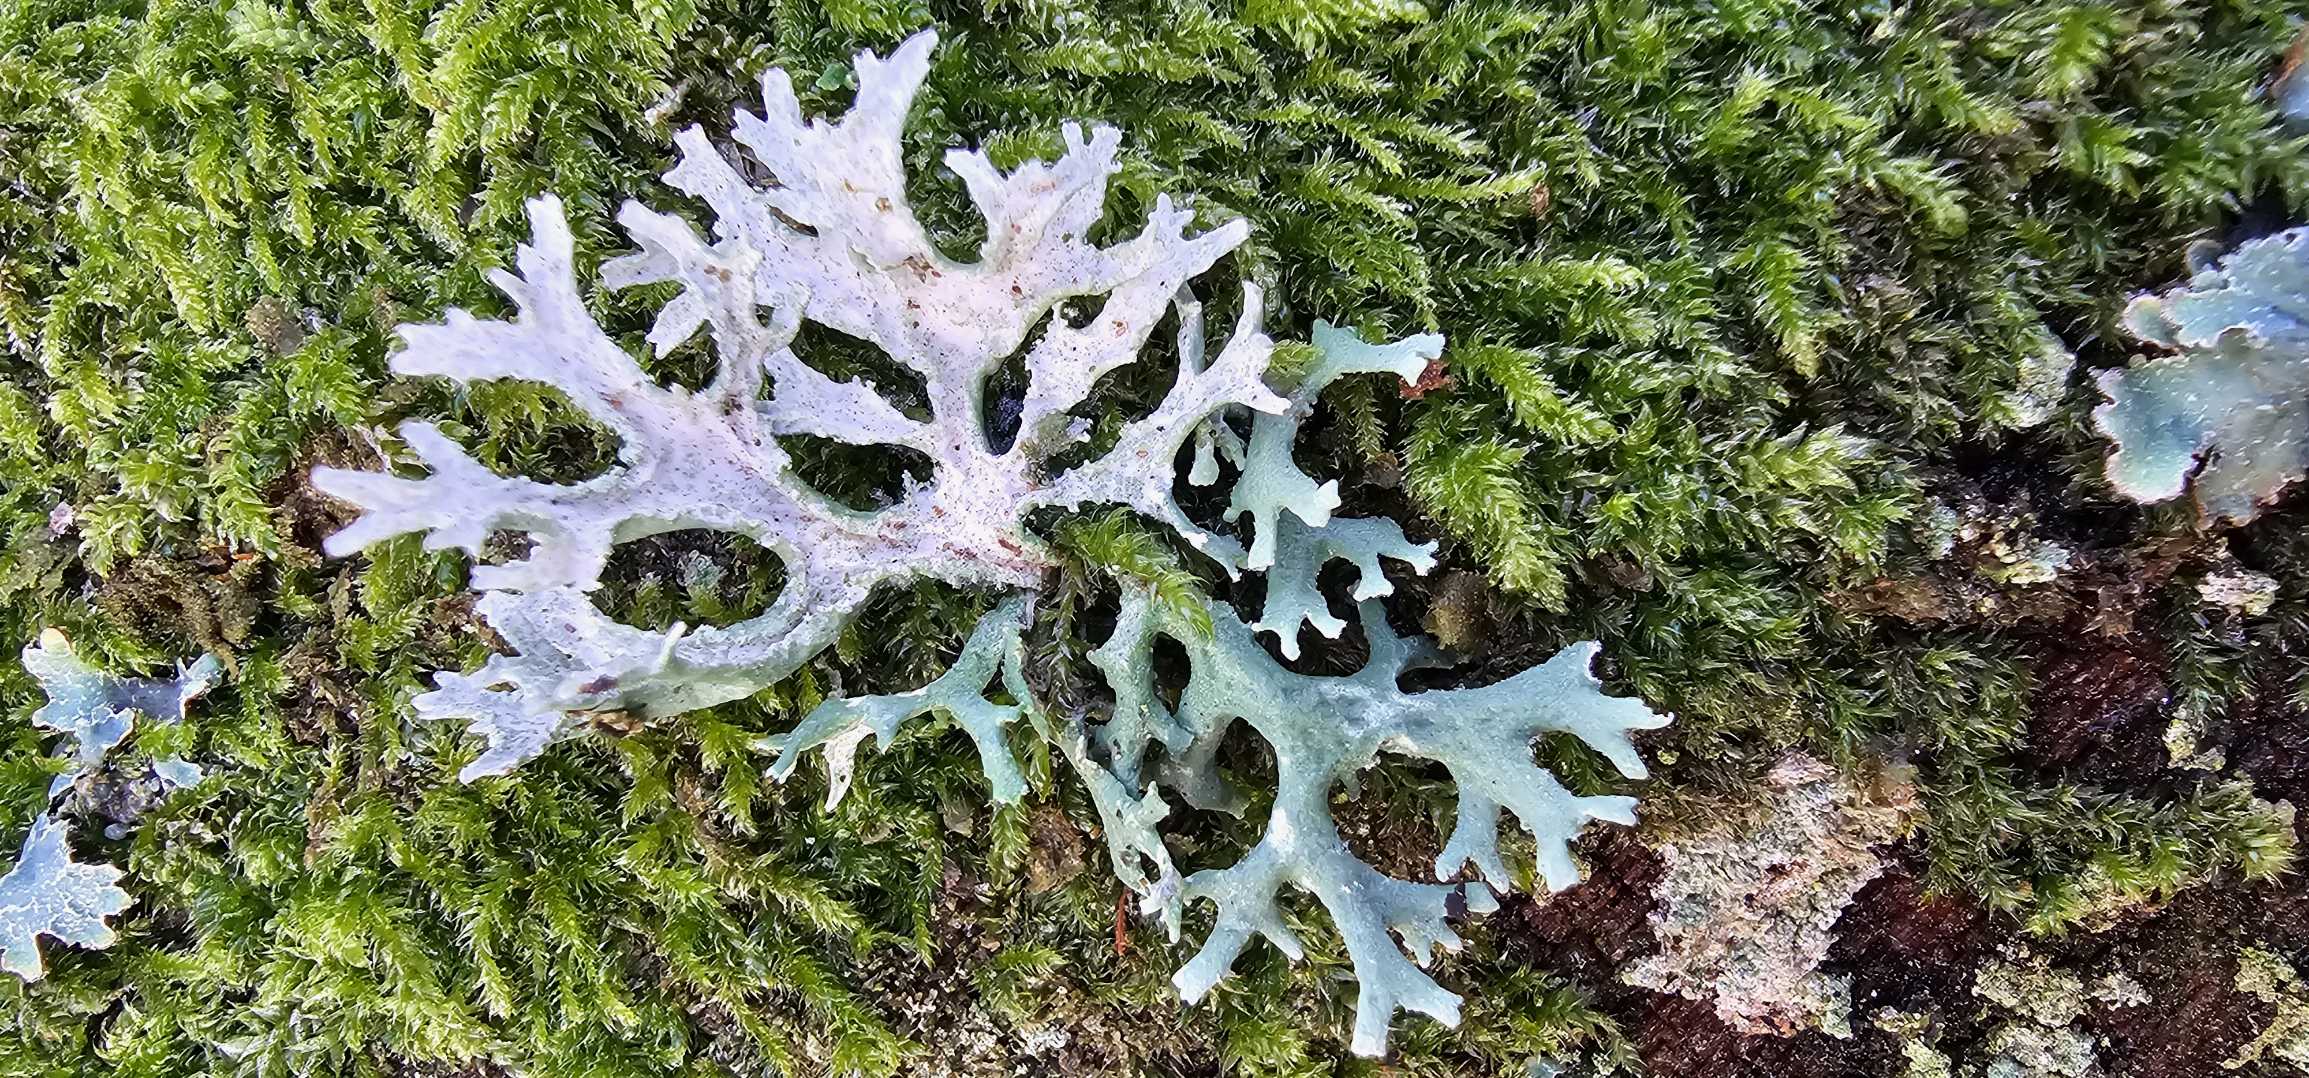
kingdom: Fungi
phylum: Ascomycota
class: Lecanoromycetes
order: Lecanorales
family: Parmeliaceae
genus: Evernia
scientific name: Evernia prunastri
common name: Almindelig slåenlav
